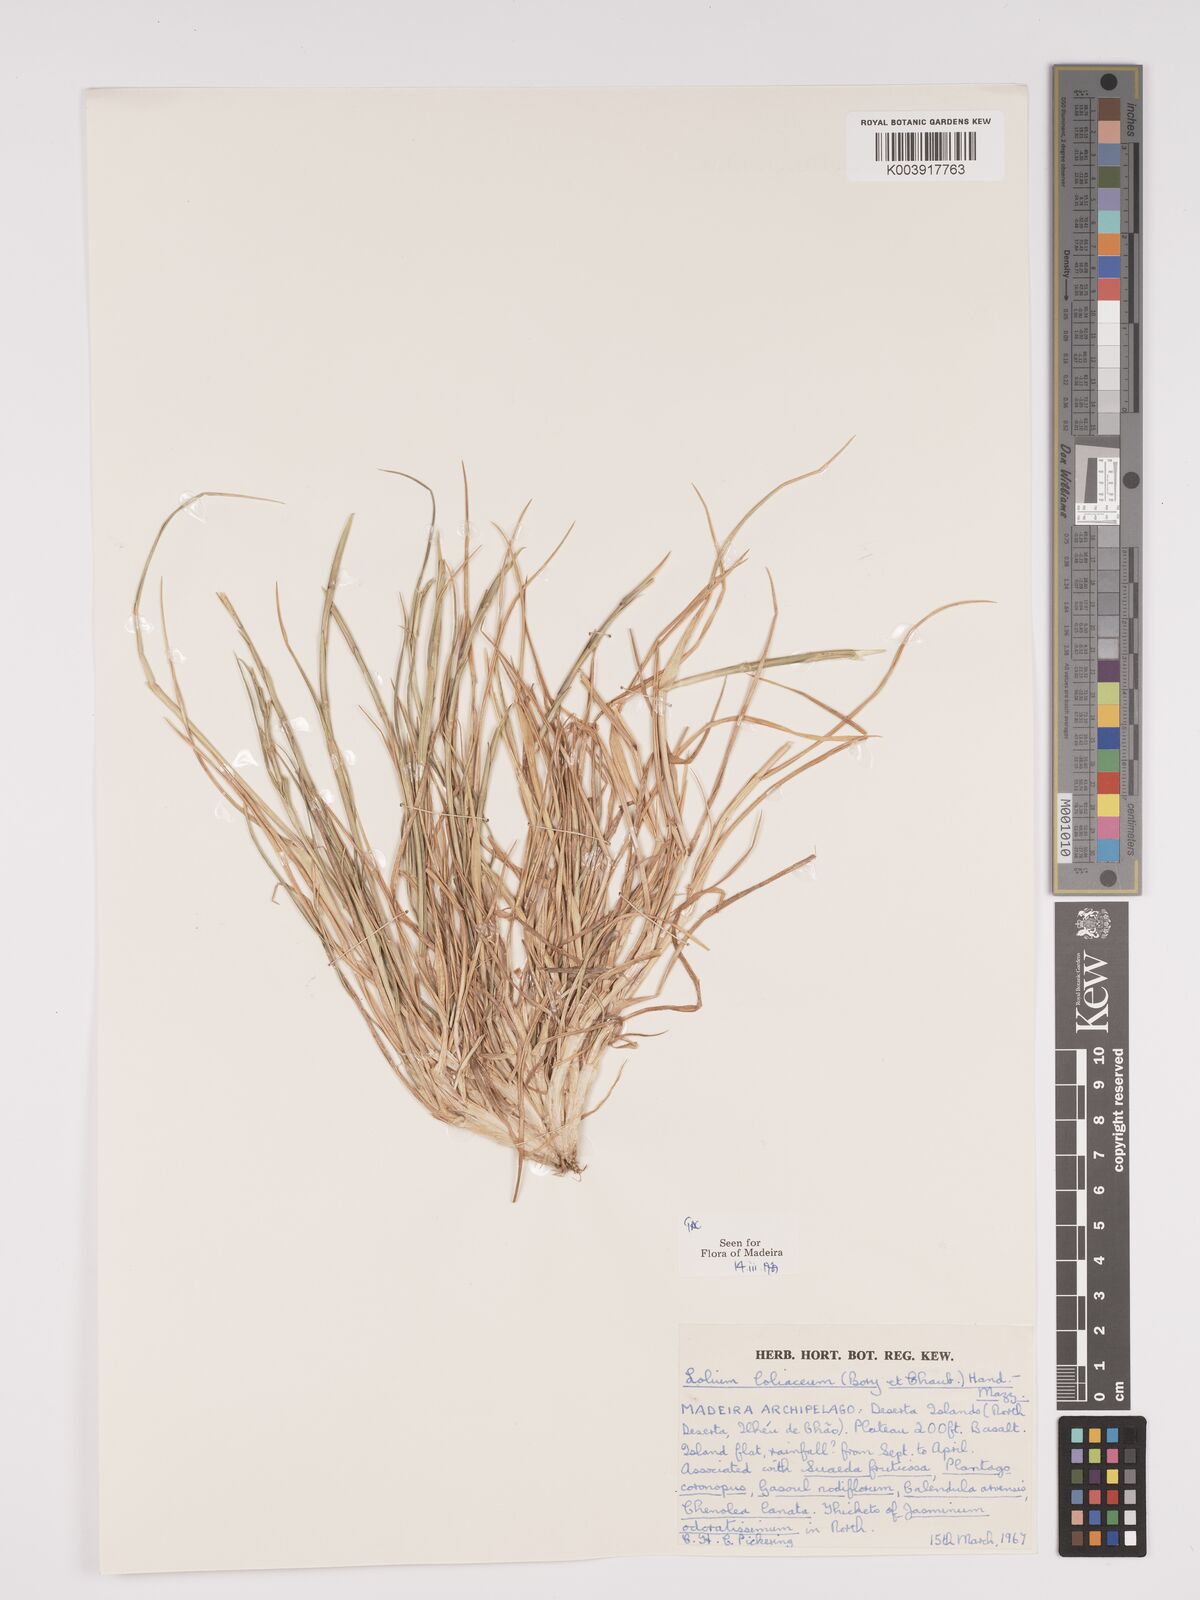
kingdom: Plantae
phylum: Tracheophyta
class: Liliopsida
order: Poales
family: Poaceae
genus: Lolium
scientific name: Lolium rigidum
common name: Wimmera ryegrass
